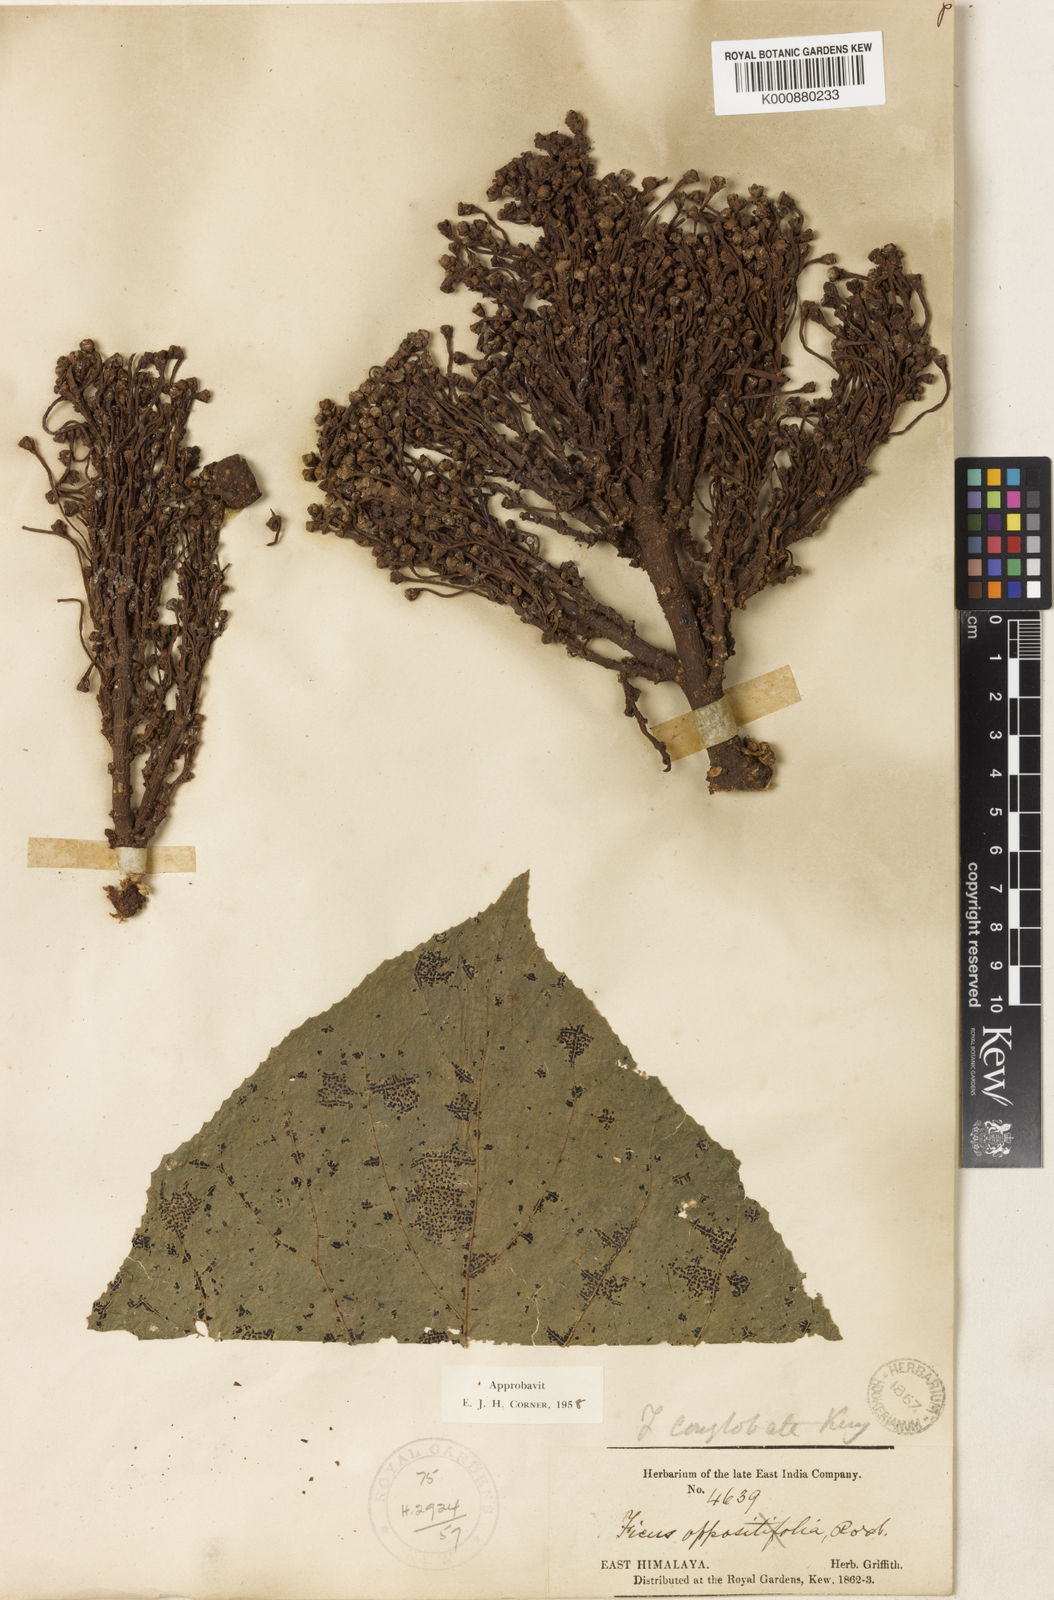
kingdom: Plantae
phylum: Tracheophyta
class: Magnoliopsida
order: Rosales
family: Moraceae
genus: Ficus
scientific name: Ficus conglobata
